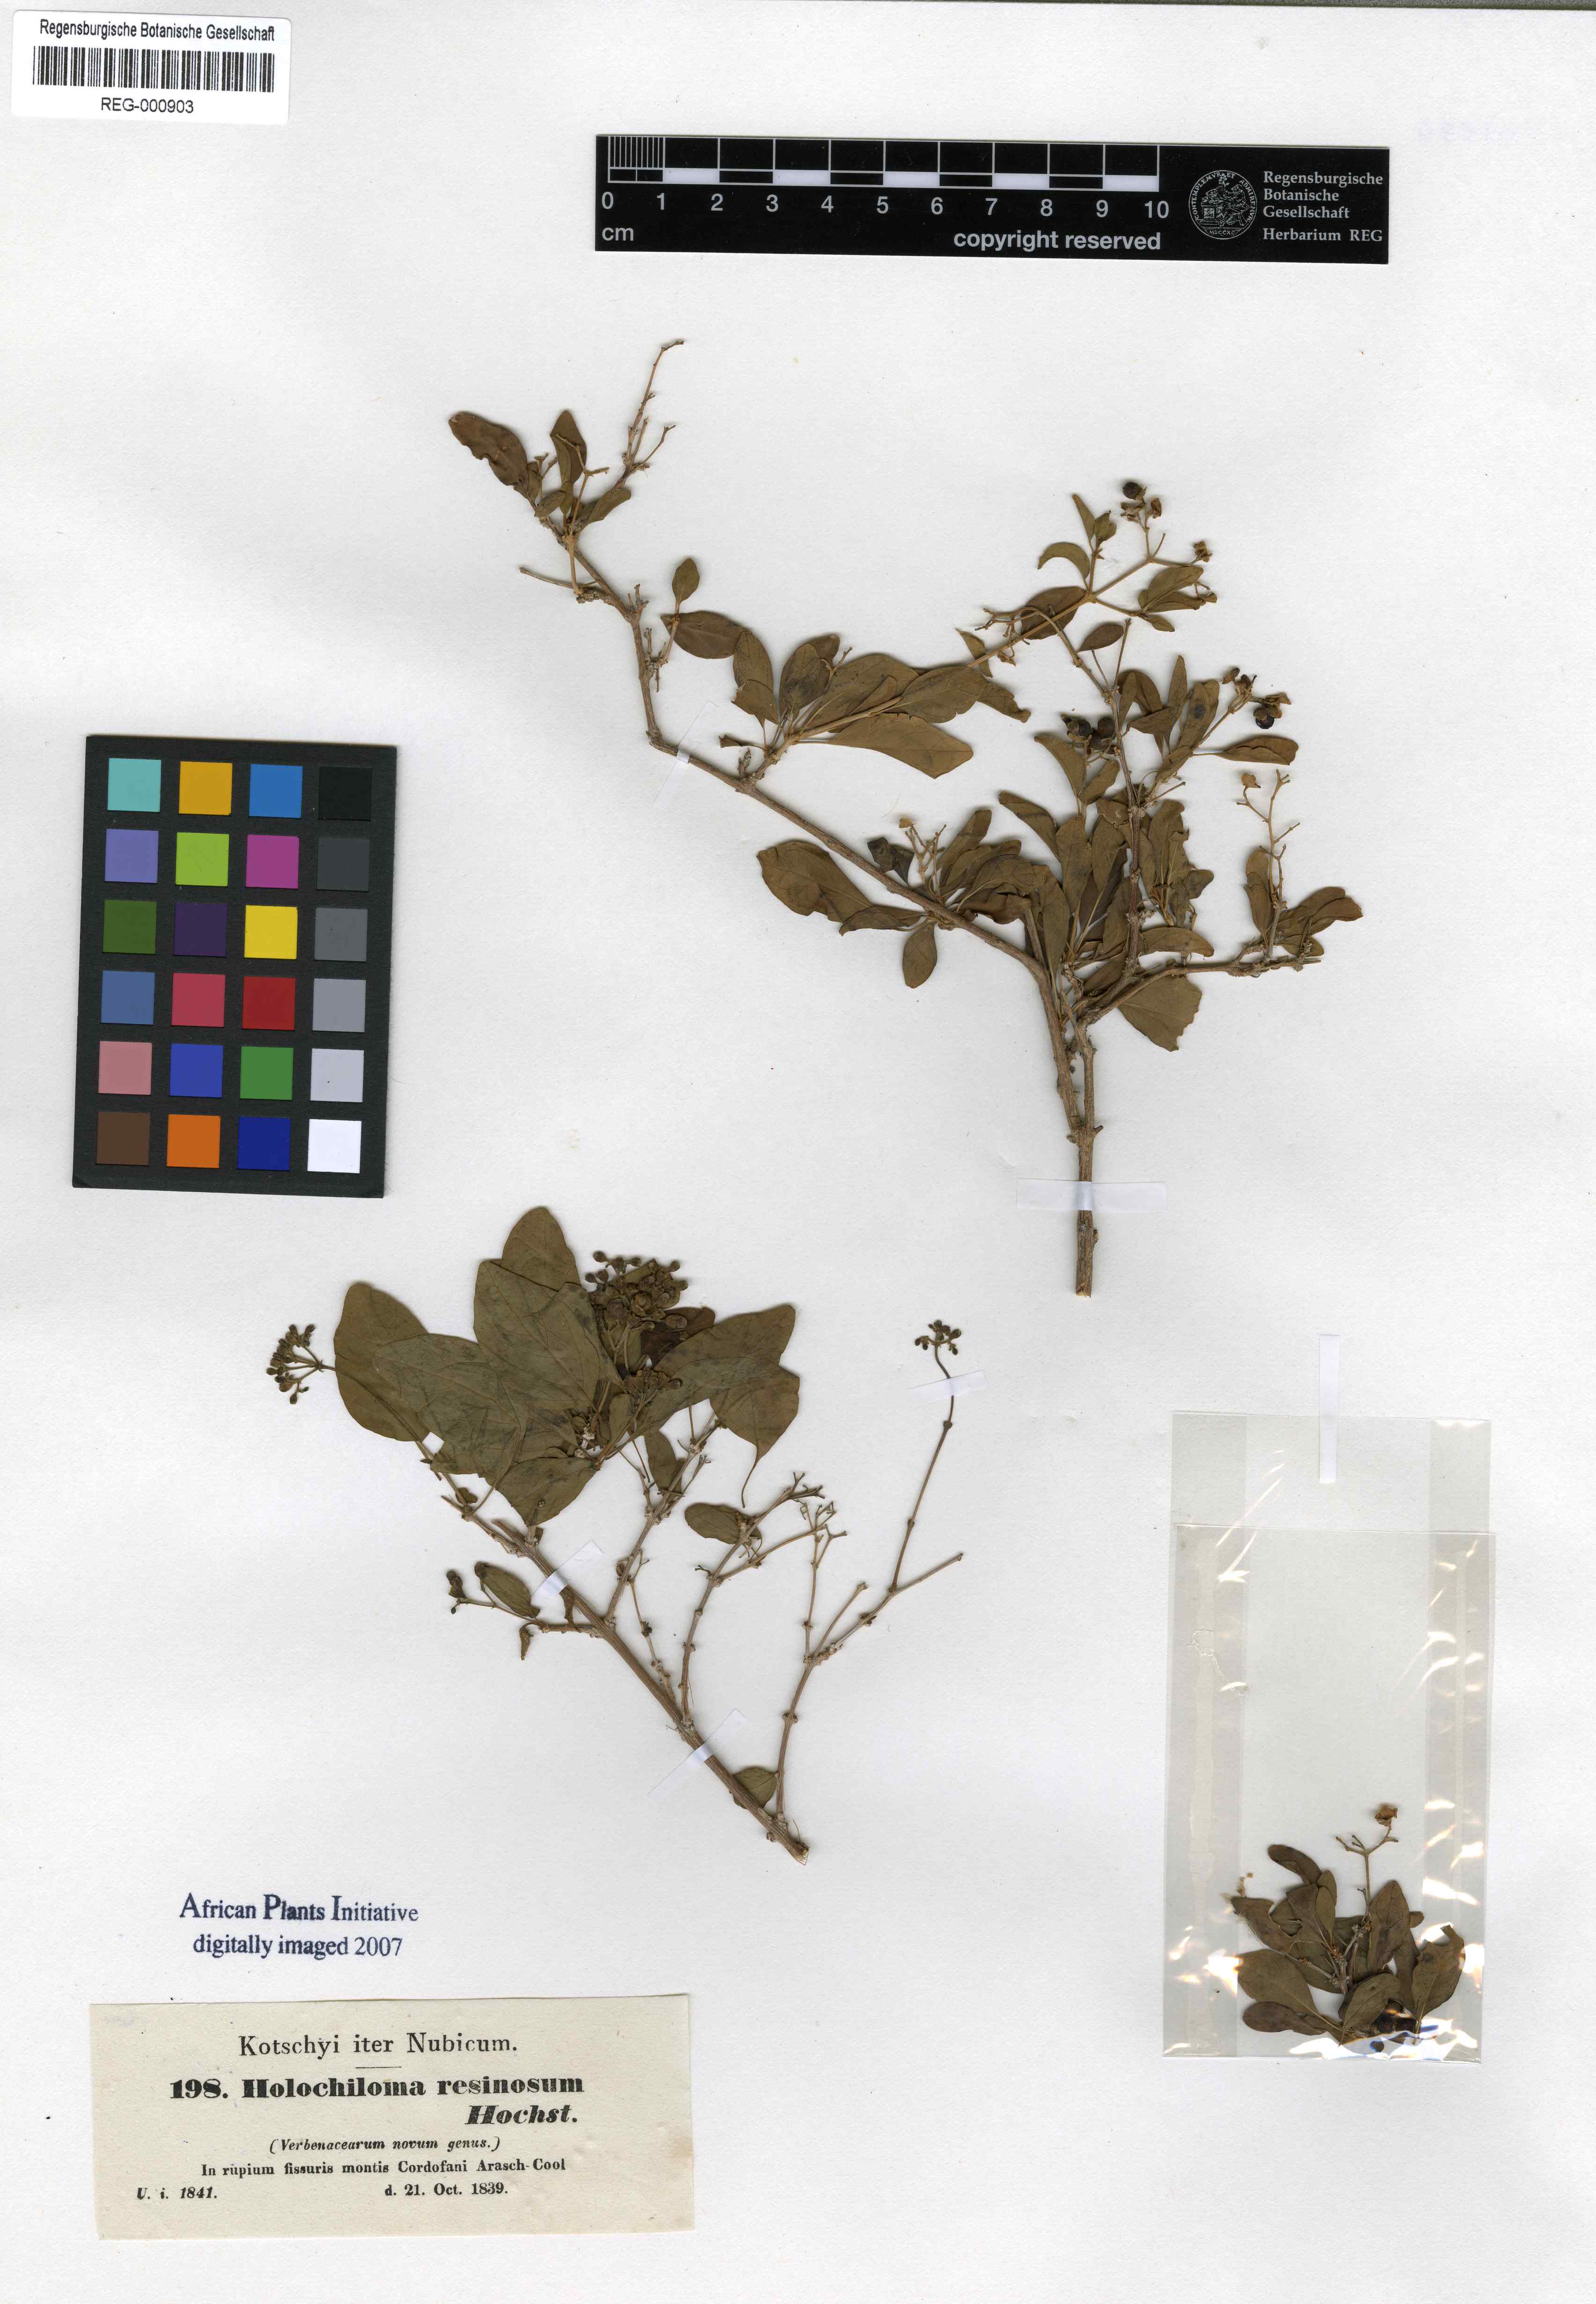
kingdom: Plantae
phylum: Tracheophyta
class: Magnoliopsida
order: Lamiales
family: Lamiaceae
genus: Premna
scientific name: Premna resinosa
